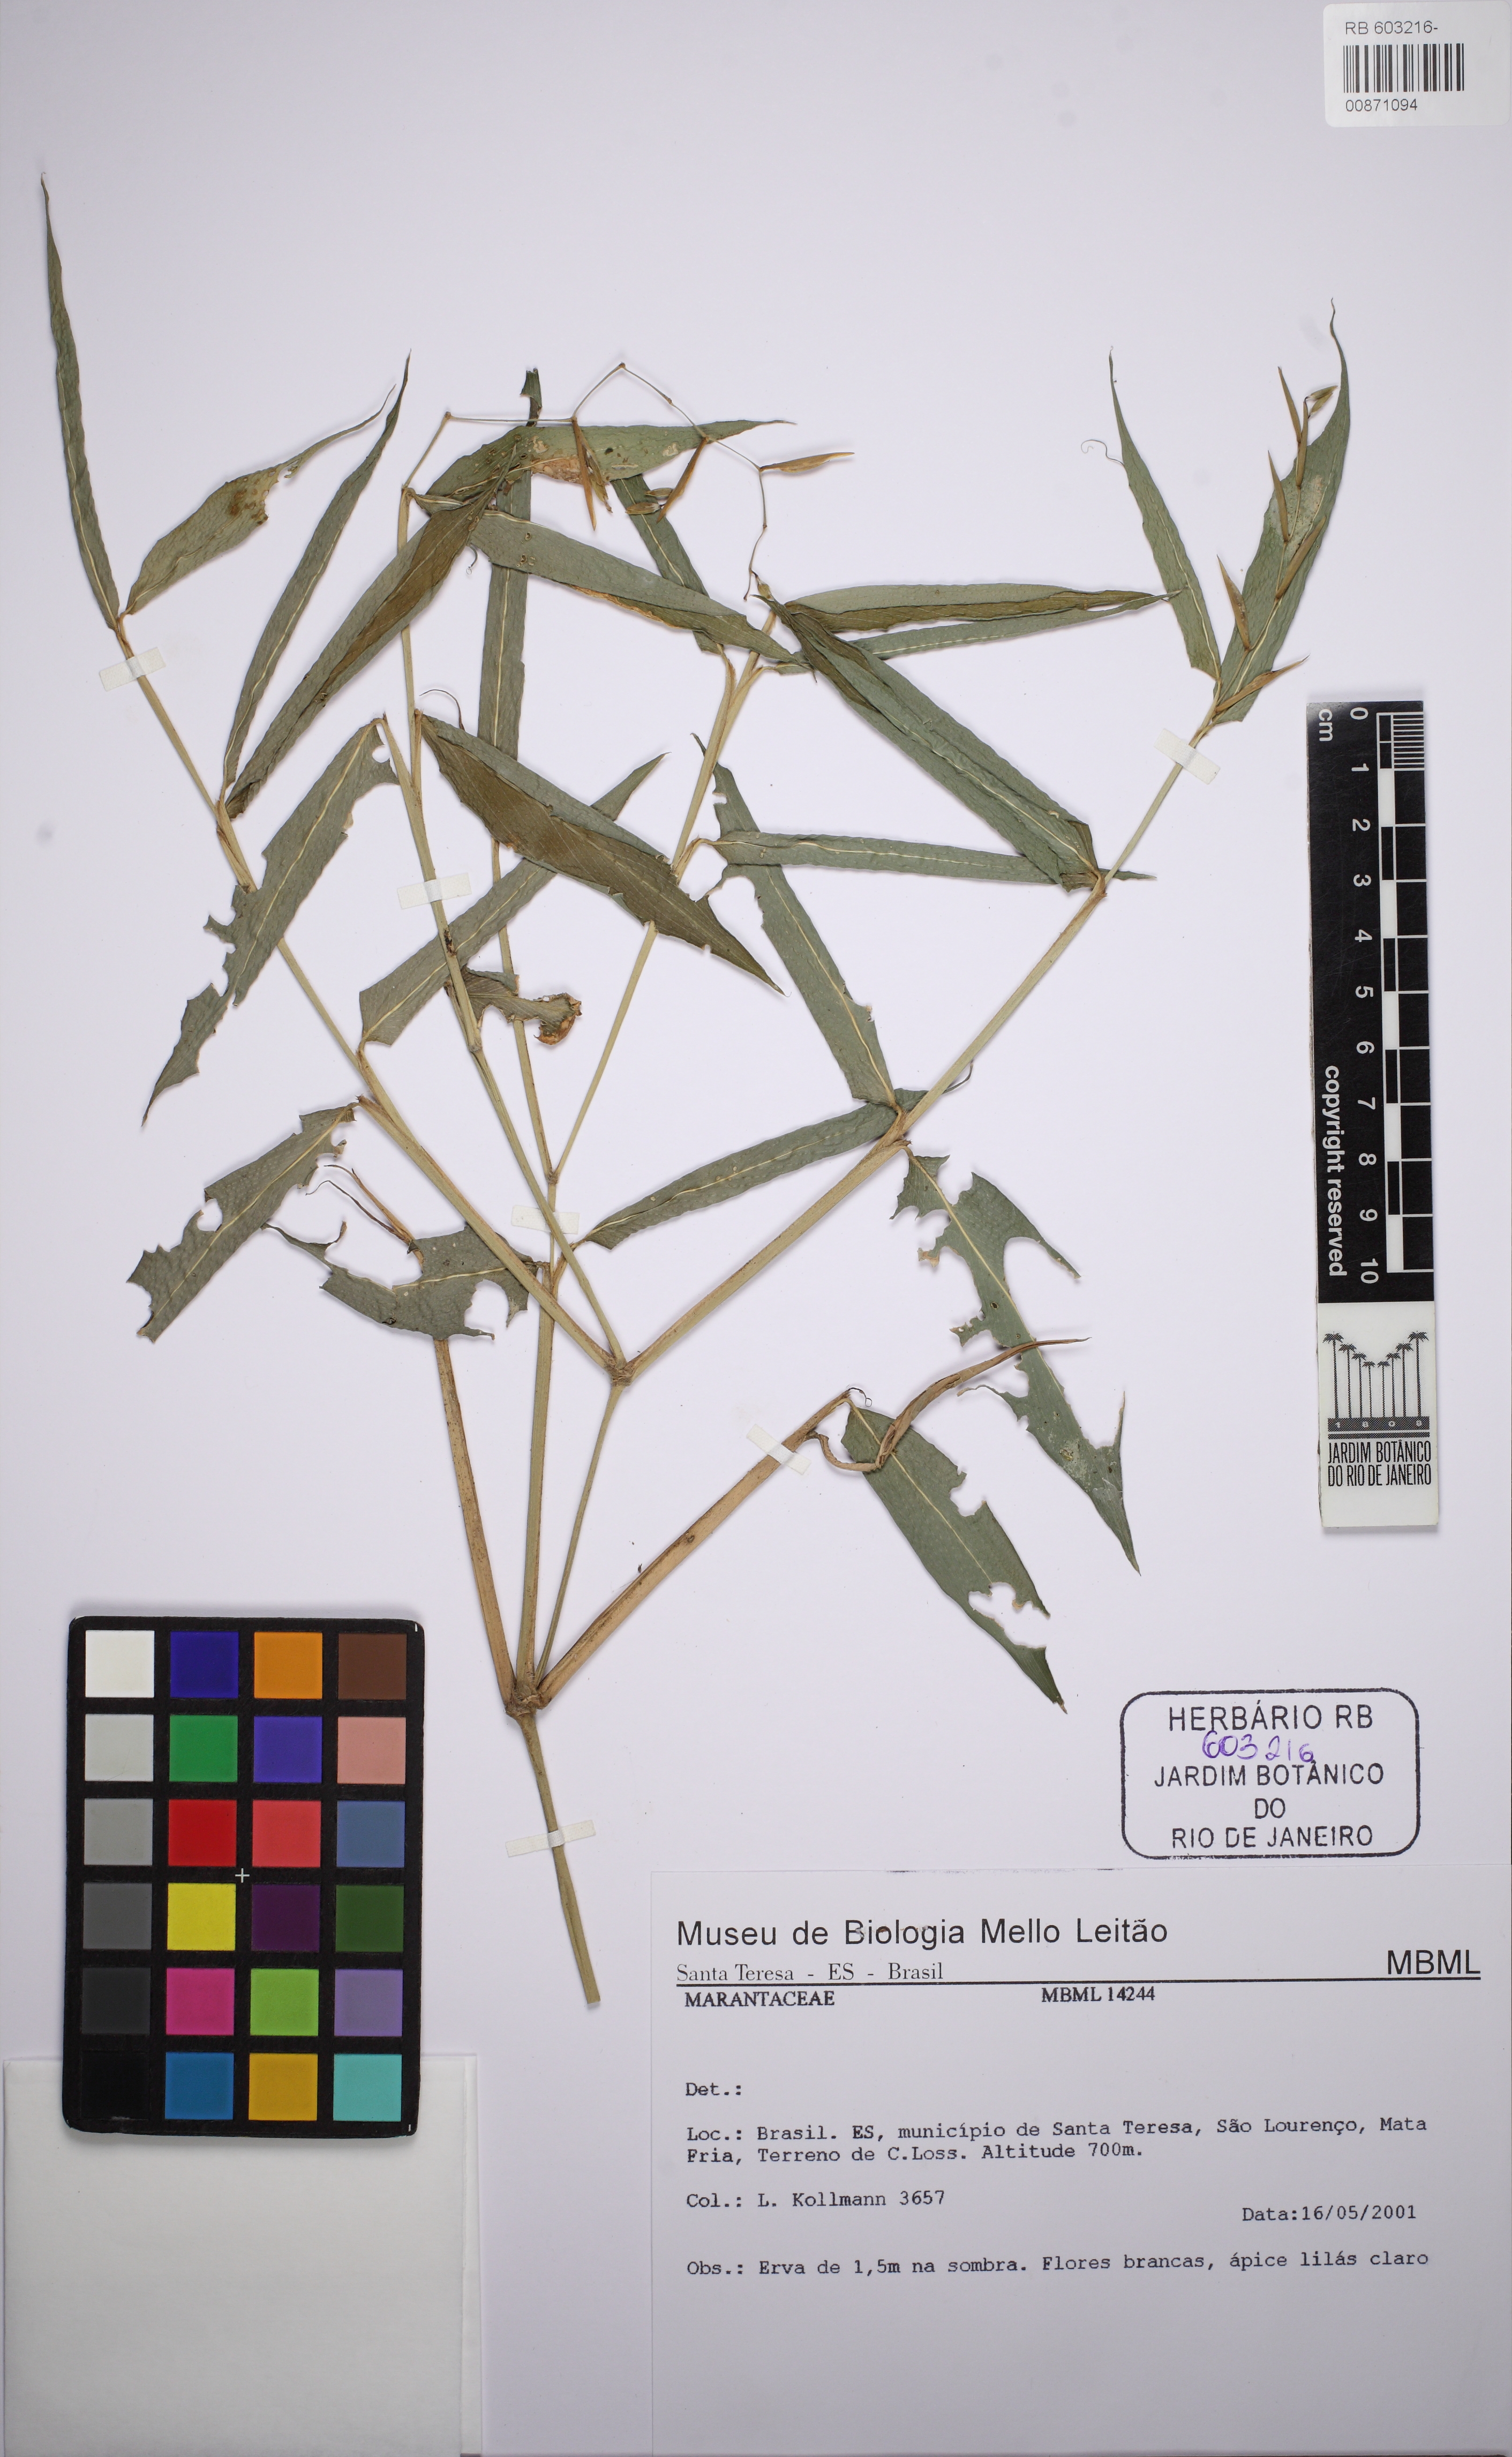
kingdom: Plantae
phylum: Tracheophyta
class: Liliopsida
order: Zingiberales
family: Marantaceae
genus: Stromanthe
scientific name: Stromanthe tonckat
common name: Stromanthe
